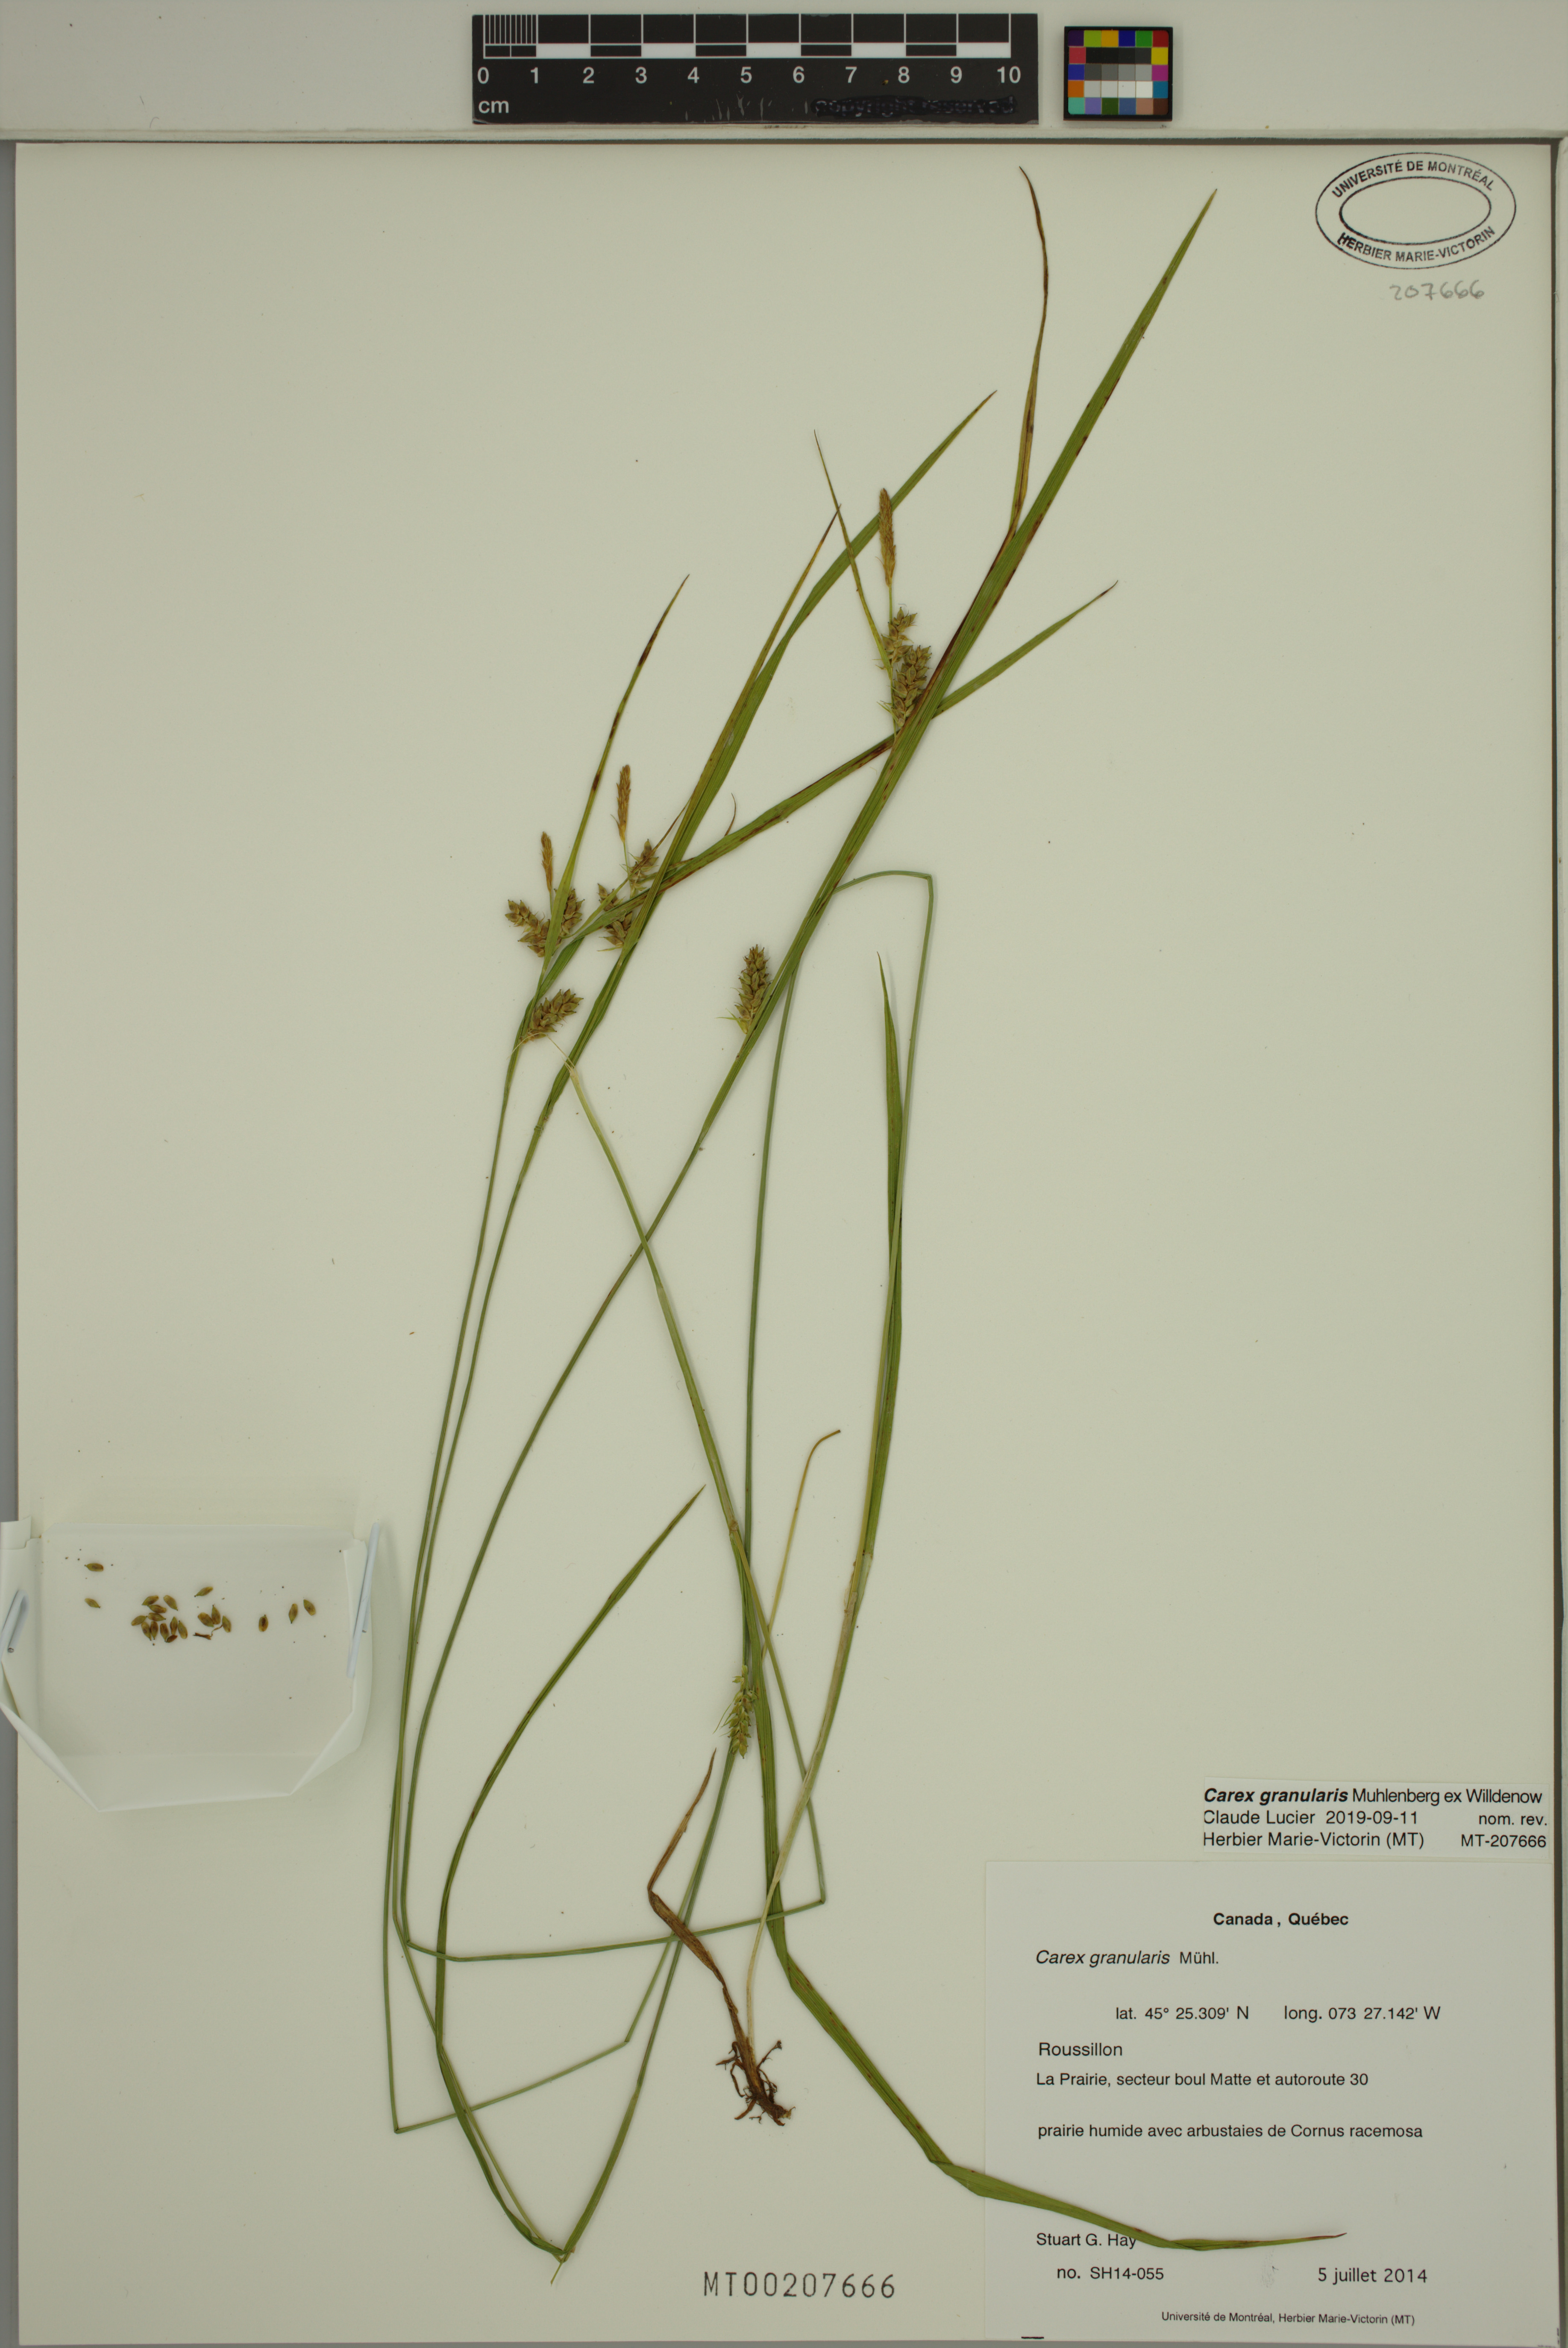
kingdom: Plantae
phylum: Tracheophyta
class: Liliopsida
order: Poales
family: Cyperaceae
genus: Carex
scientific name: Carex granularis
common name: Granular sedge
